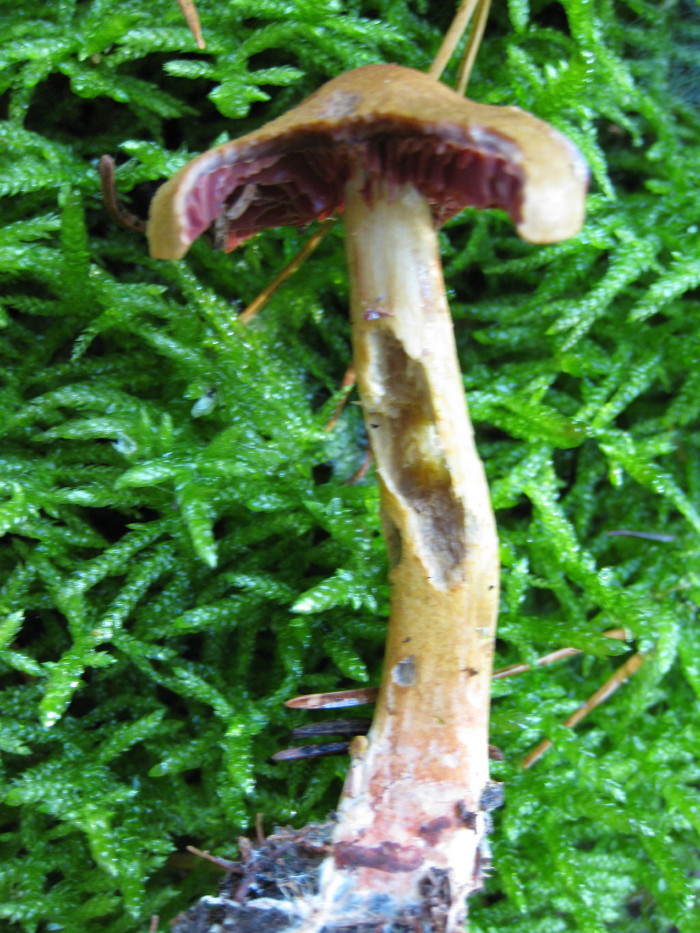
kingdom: Fungi
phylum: Basidiomycota
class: Agaricomycetes
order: Agaricales
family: Cortinariaceae
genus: Cortinarius
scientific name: Cortinarius
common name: cinnoberbladet slørhat
